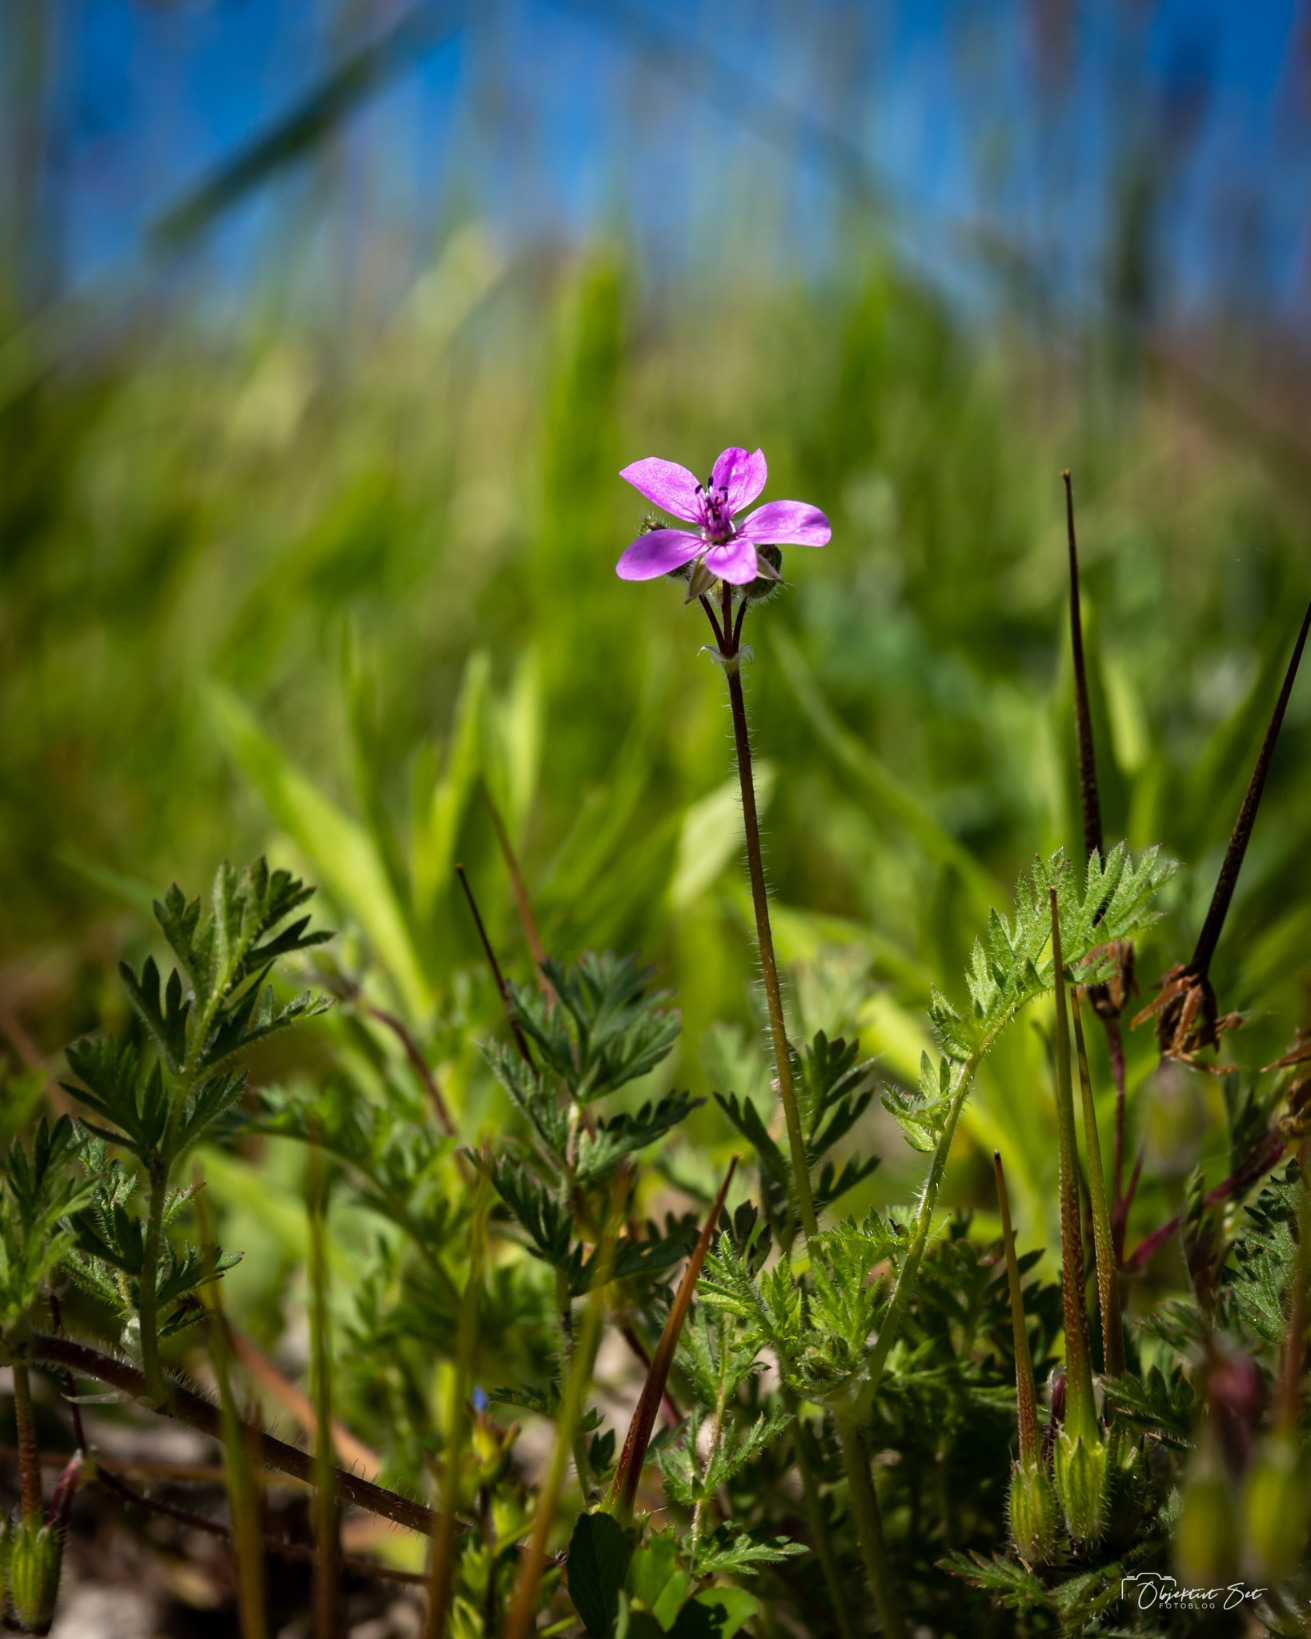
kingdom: Plantae
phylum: Tracheophyta
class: Magnoliopsida
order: Geraniales
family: Geraniaceae
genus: Erodium
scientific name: Erodium cicutarium
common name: Hejrenæb
